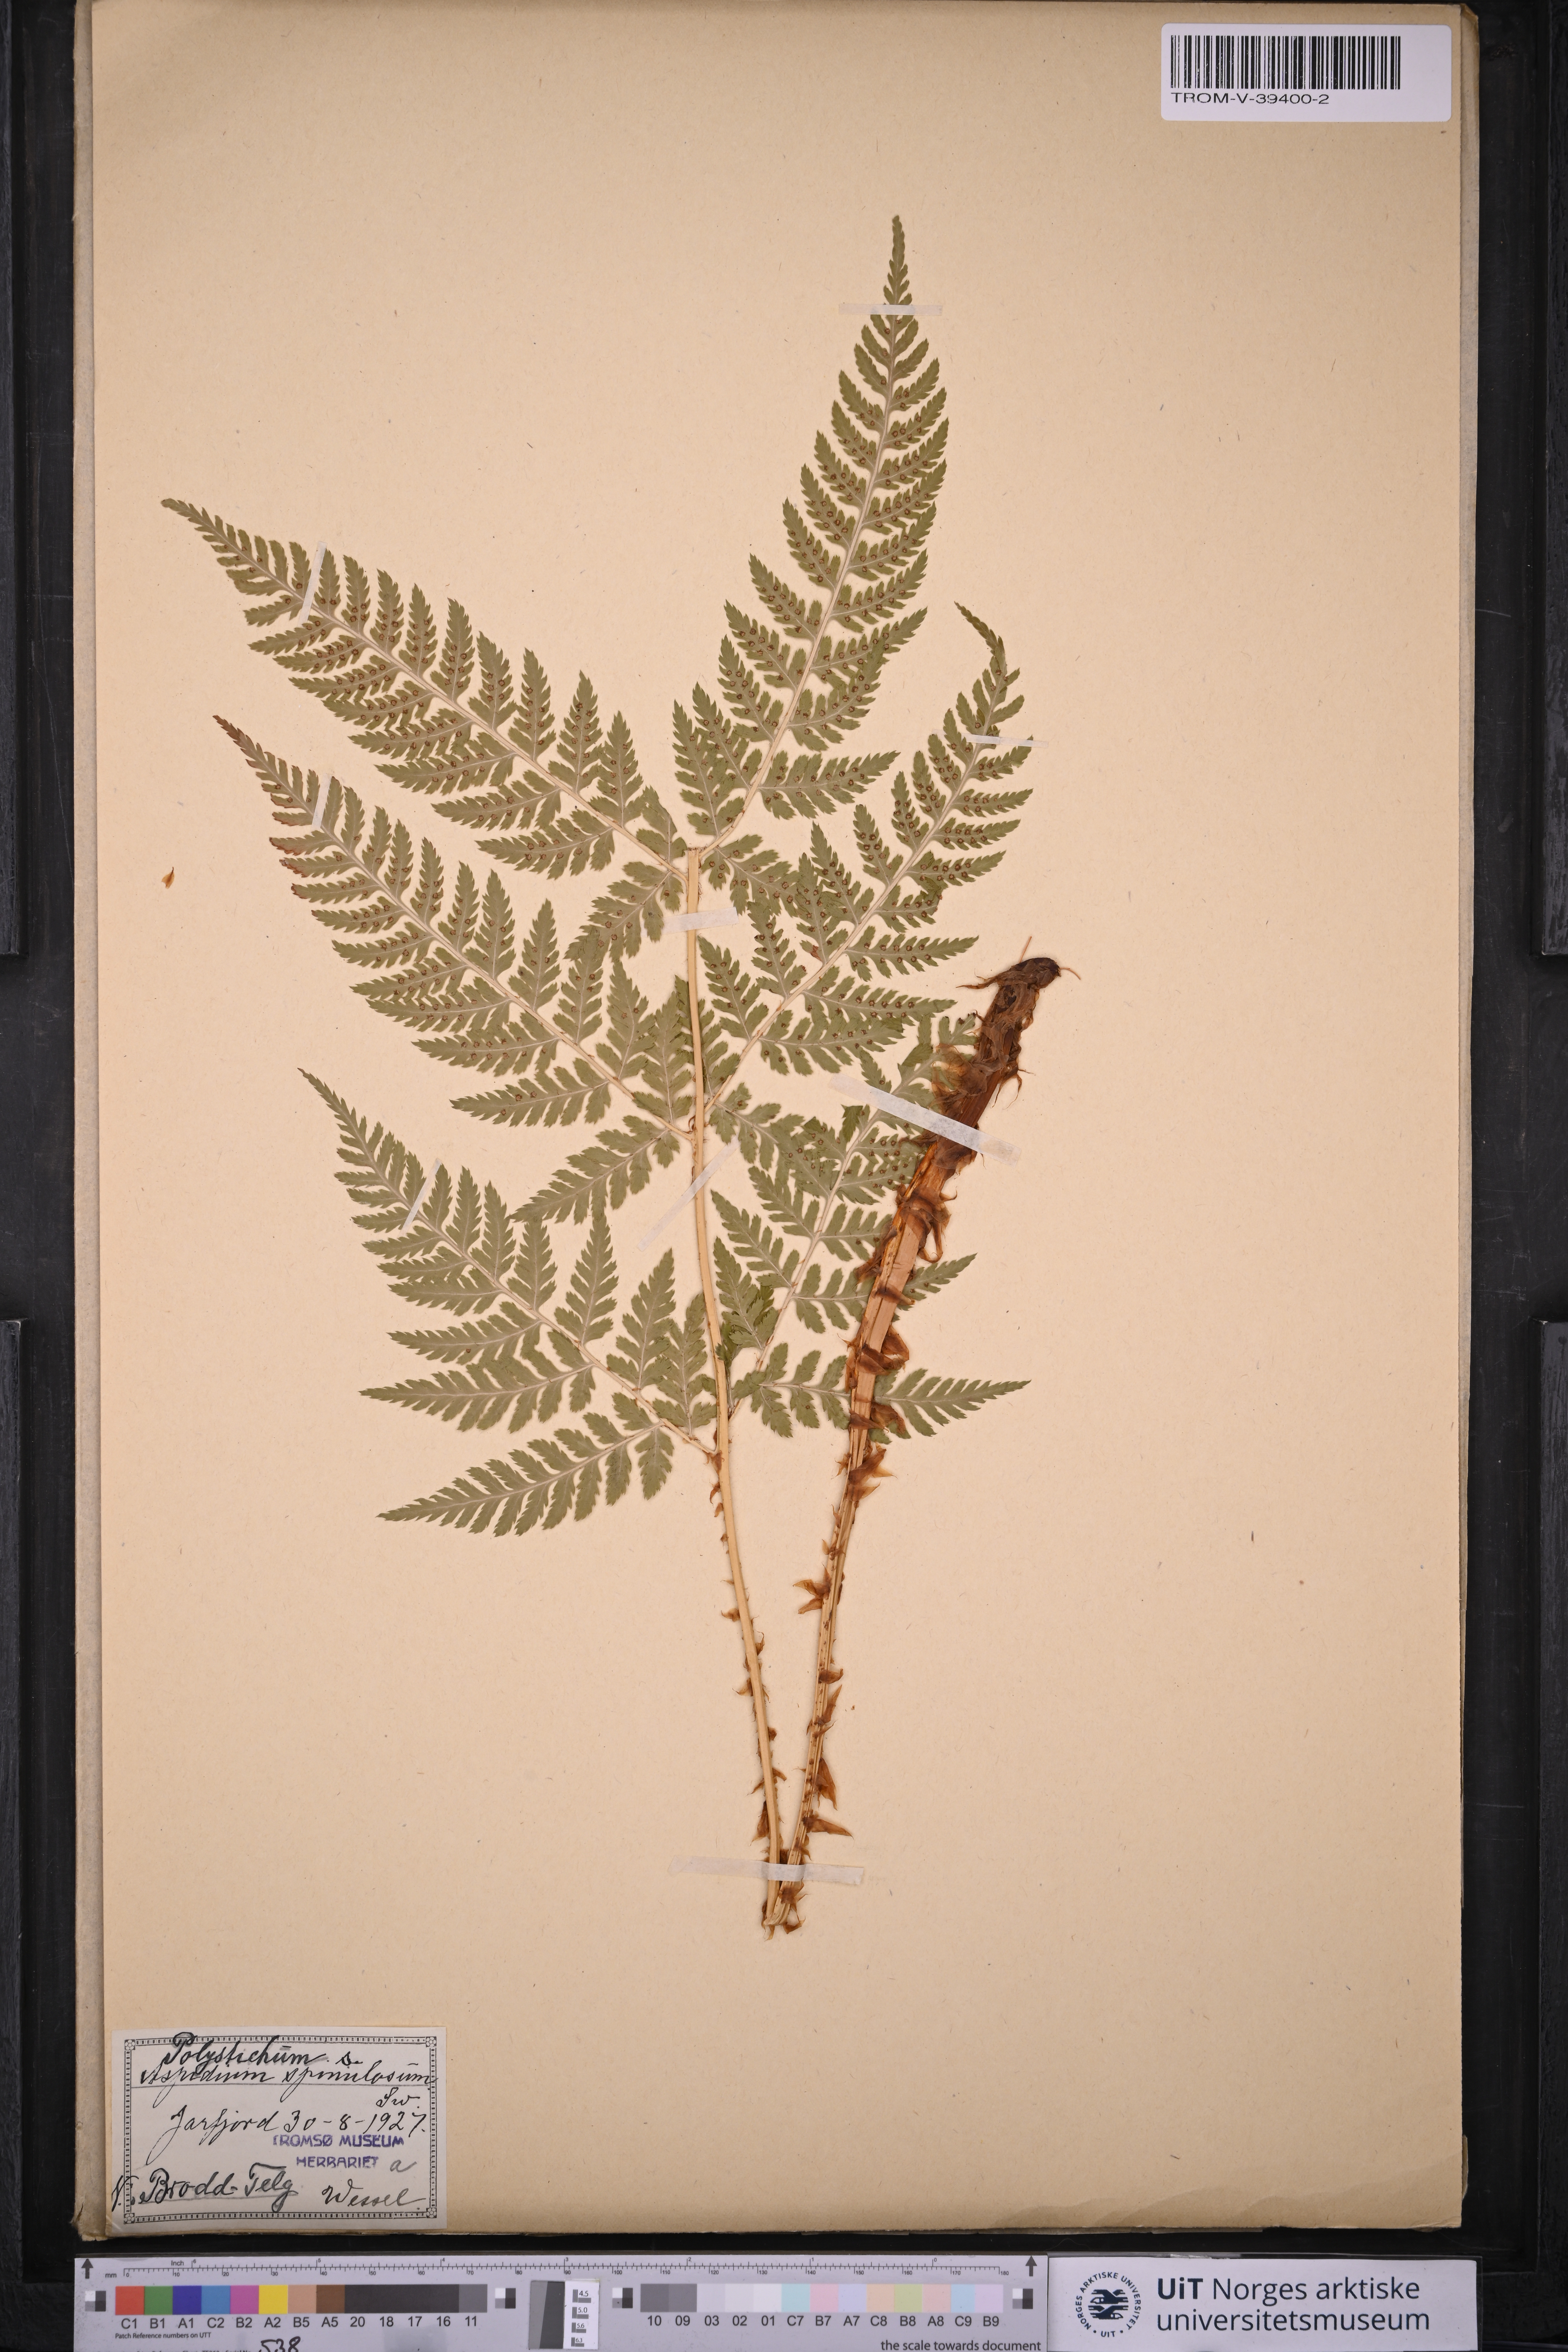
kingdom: Plantae
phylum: Tracheophyta
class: Polypodiopsida
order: Polypodiales
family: Dryopteridaceae
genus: Dryopteris
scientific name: Dryopteris expansa
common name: Northern buckler fern
